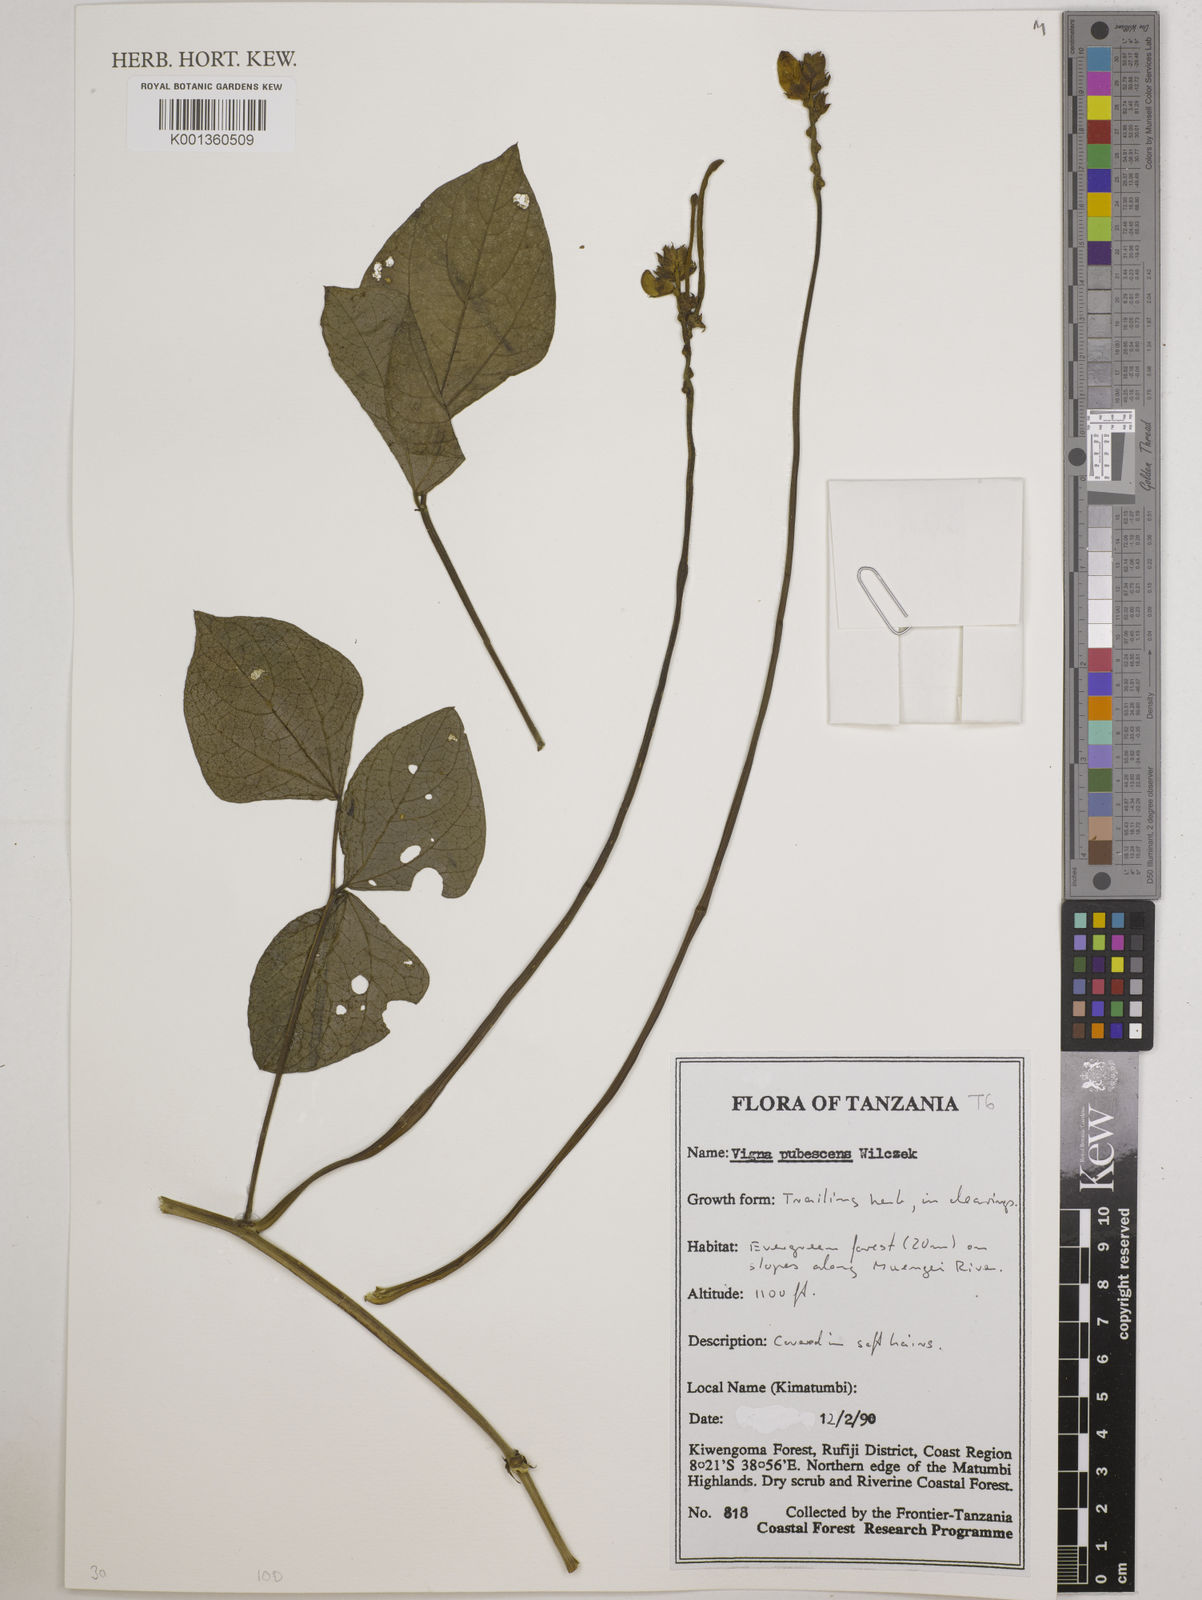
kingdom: Plantae
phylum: Tracheophyta
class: Magnoliopsida
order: Fabales
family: Fabaceae
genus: Vigna
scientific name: Vigna unguiculata
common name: Cowpea
